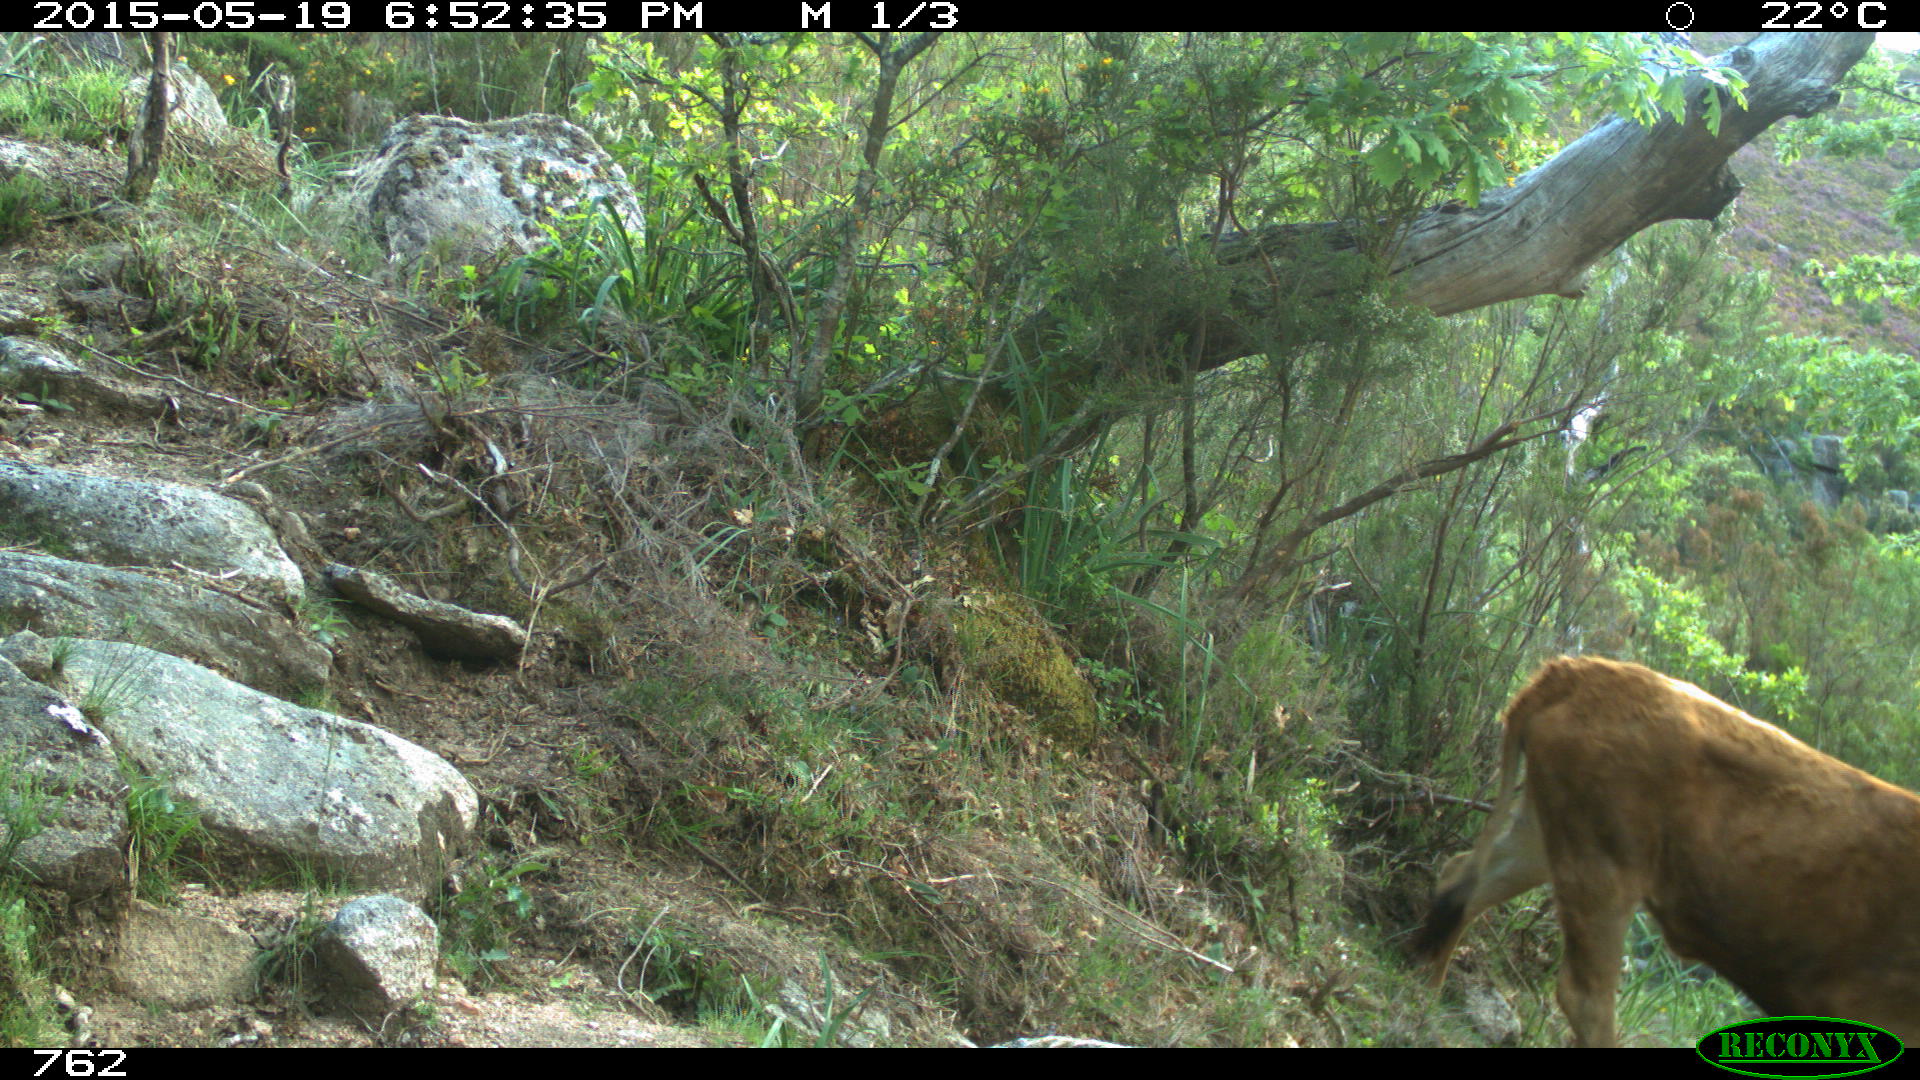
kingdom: Animalia
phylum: Chordata
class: Mammalia
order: Artiodactyla
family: Bovidae
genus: Bos
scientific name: Bos taurus
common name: Domesticated cattle
